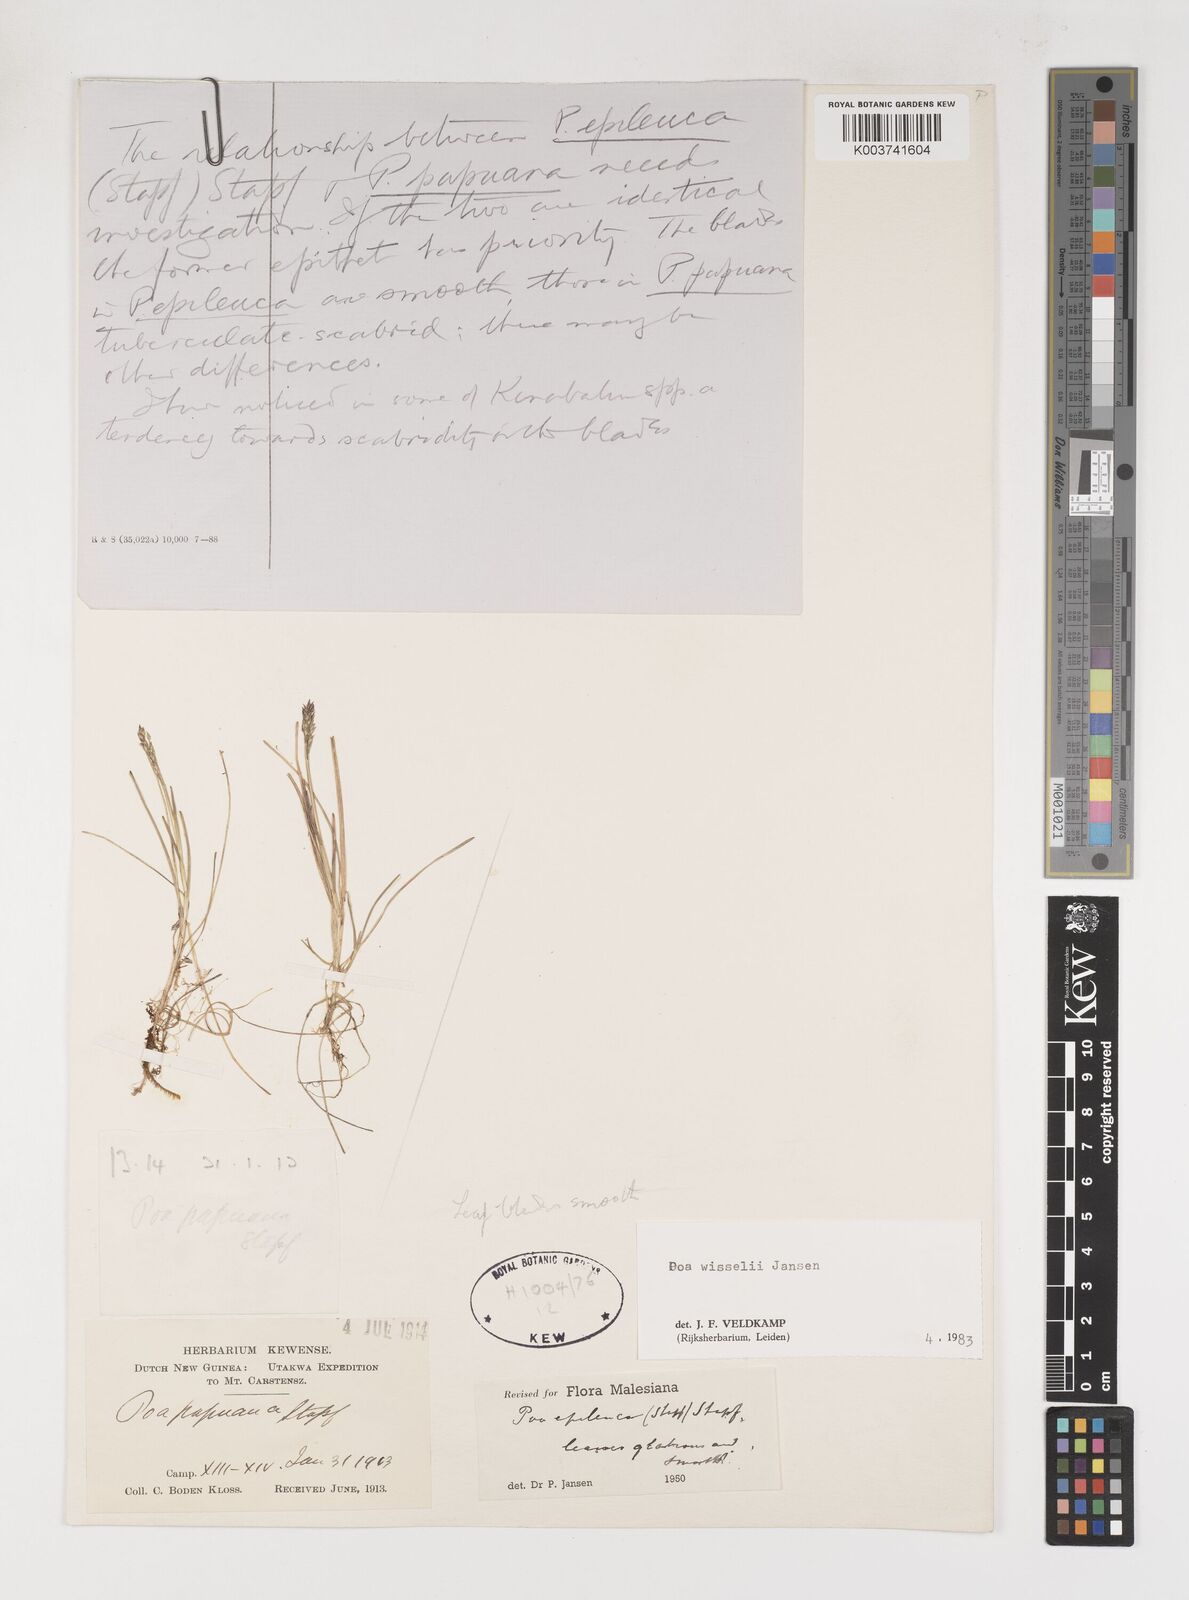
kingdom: Plantae
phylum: Tracheophyta
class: Liliopsida
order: Poales
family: Poaceae
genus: Poa
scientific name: Poa wisselii
